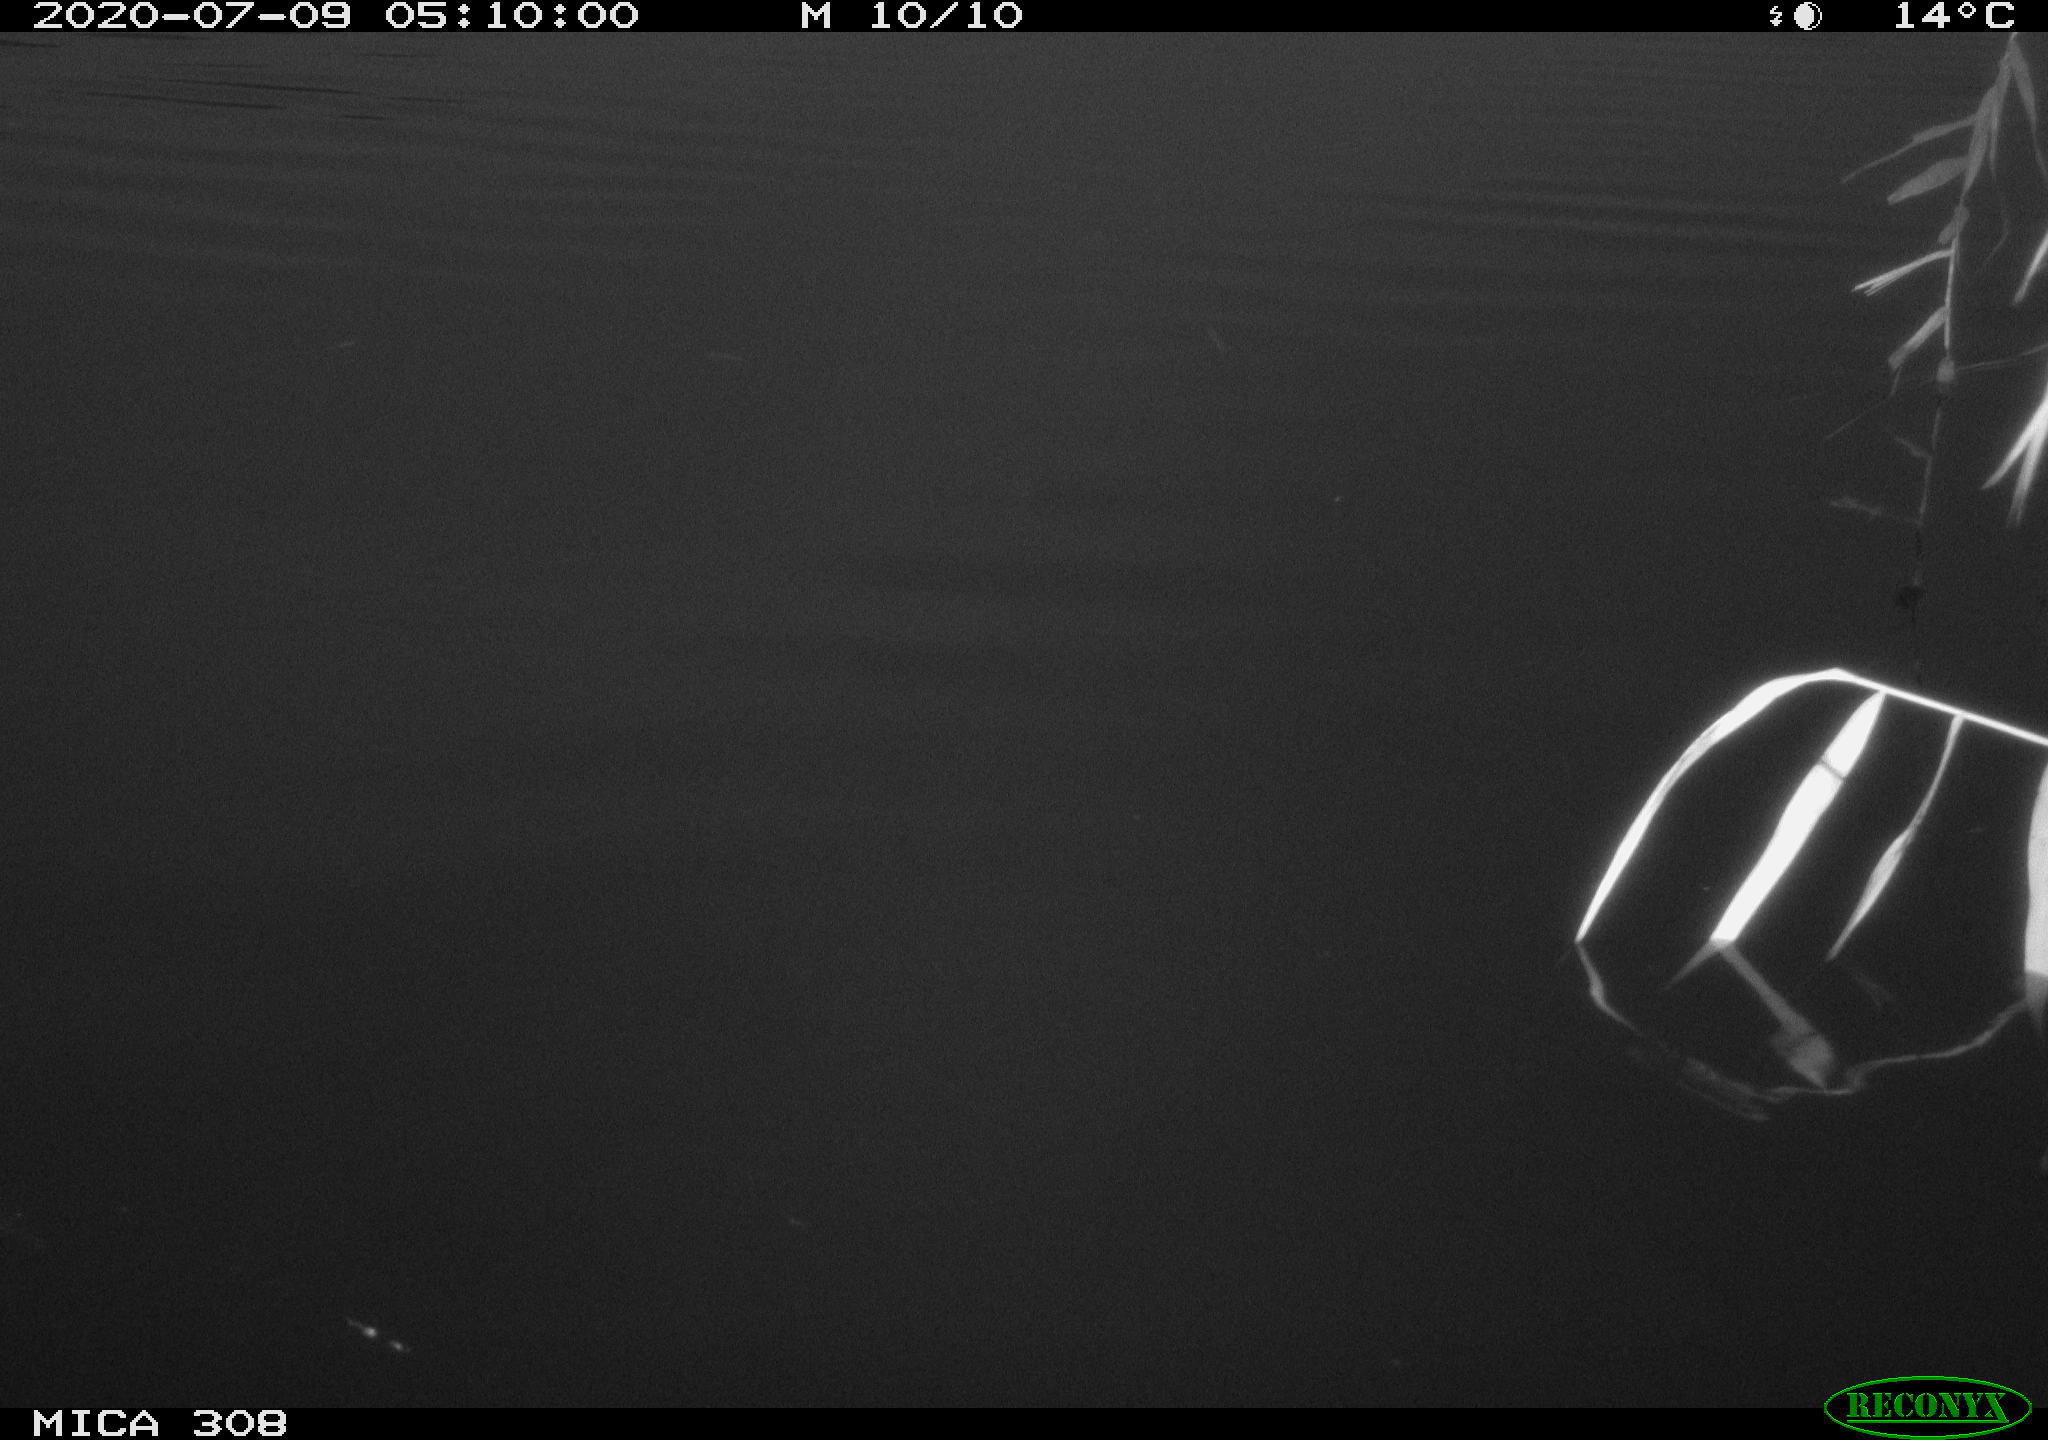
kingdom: Animalia
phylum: Chordata
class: Aves
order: Anseriformes
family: Anatidae
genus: Anas
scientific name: Anas platyrhynchos
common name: Mallard
